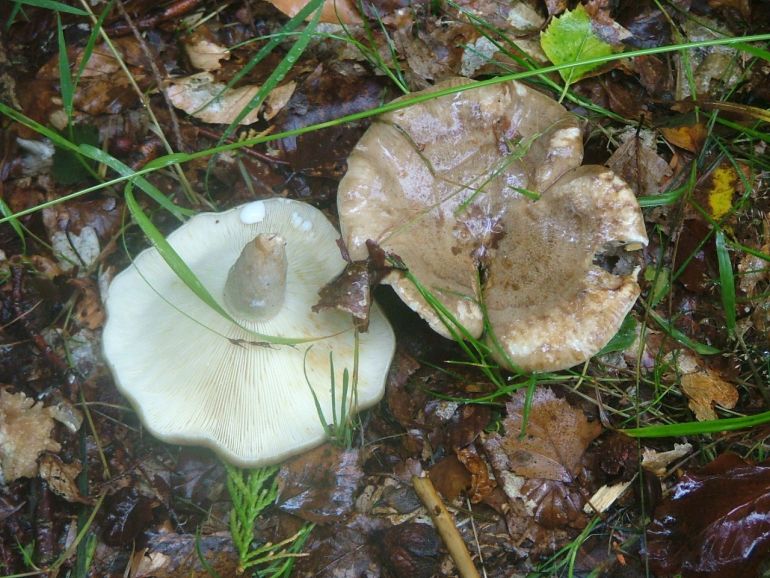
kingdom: Fungi
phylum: Basidiomycota
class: Agaricomycetes
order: Russulales
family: Russulaceae
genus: Lactarius
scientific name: Lactarius blennius
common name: dråbeplettet mælkehat
